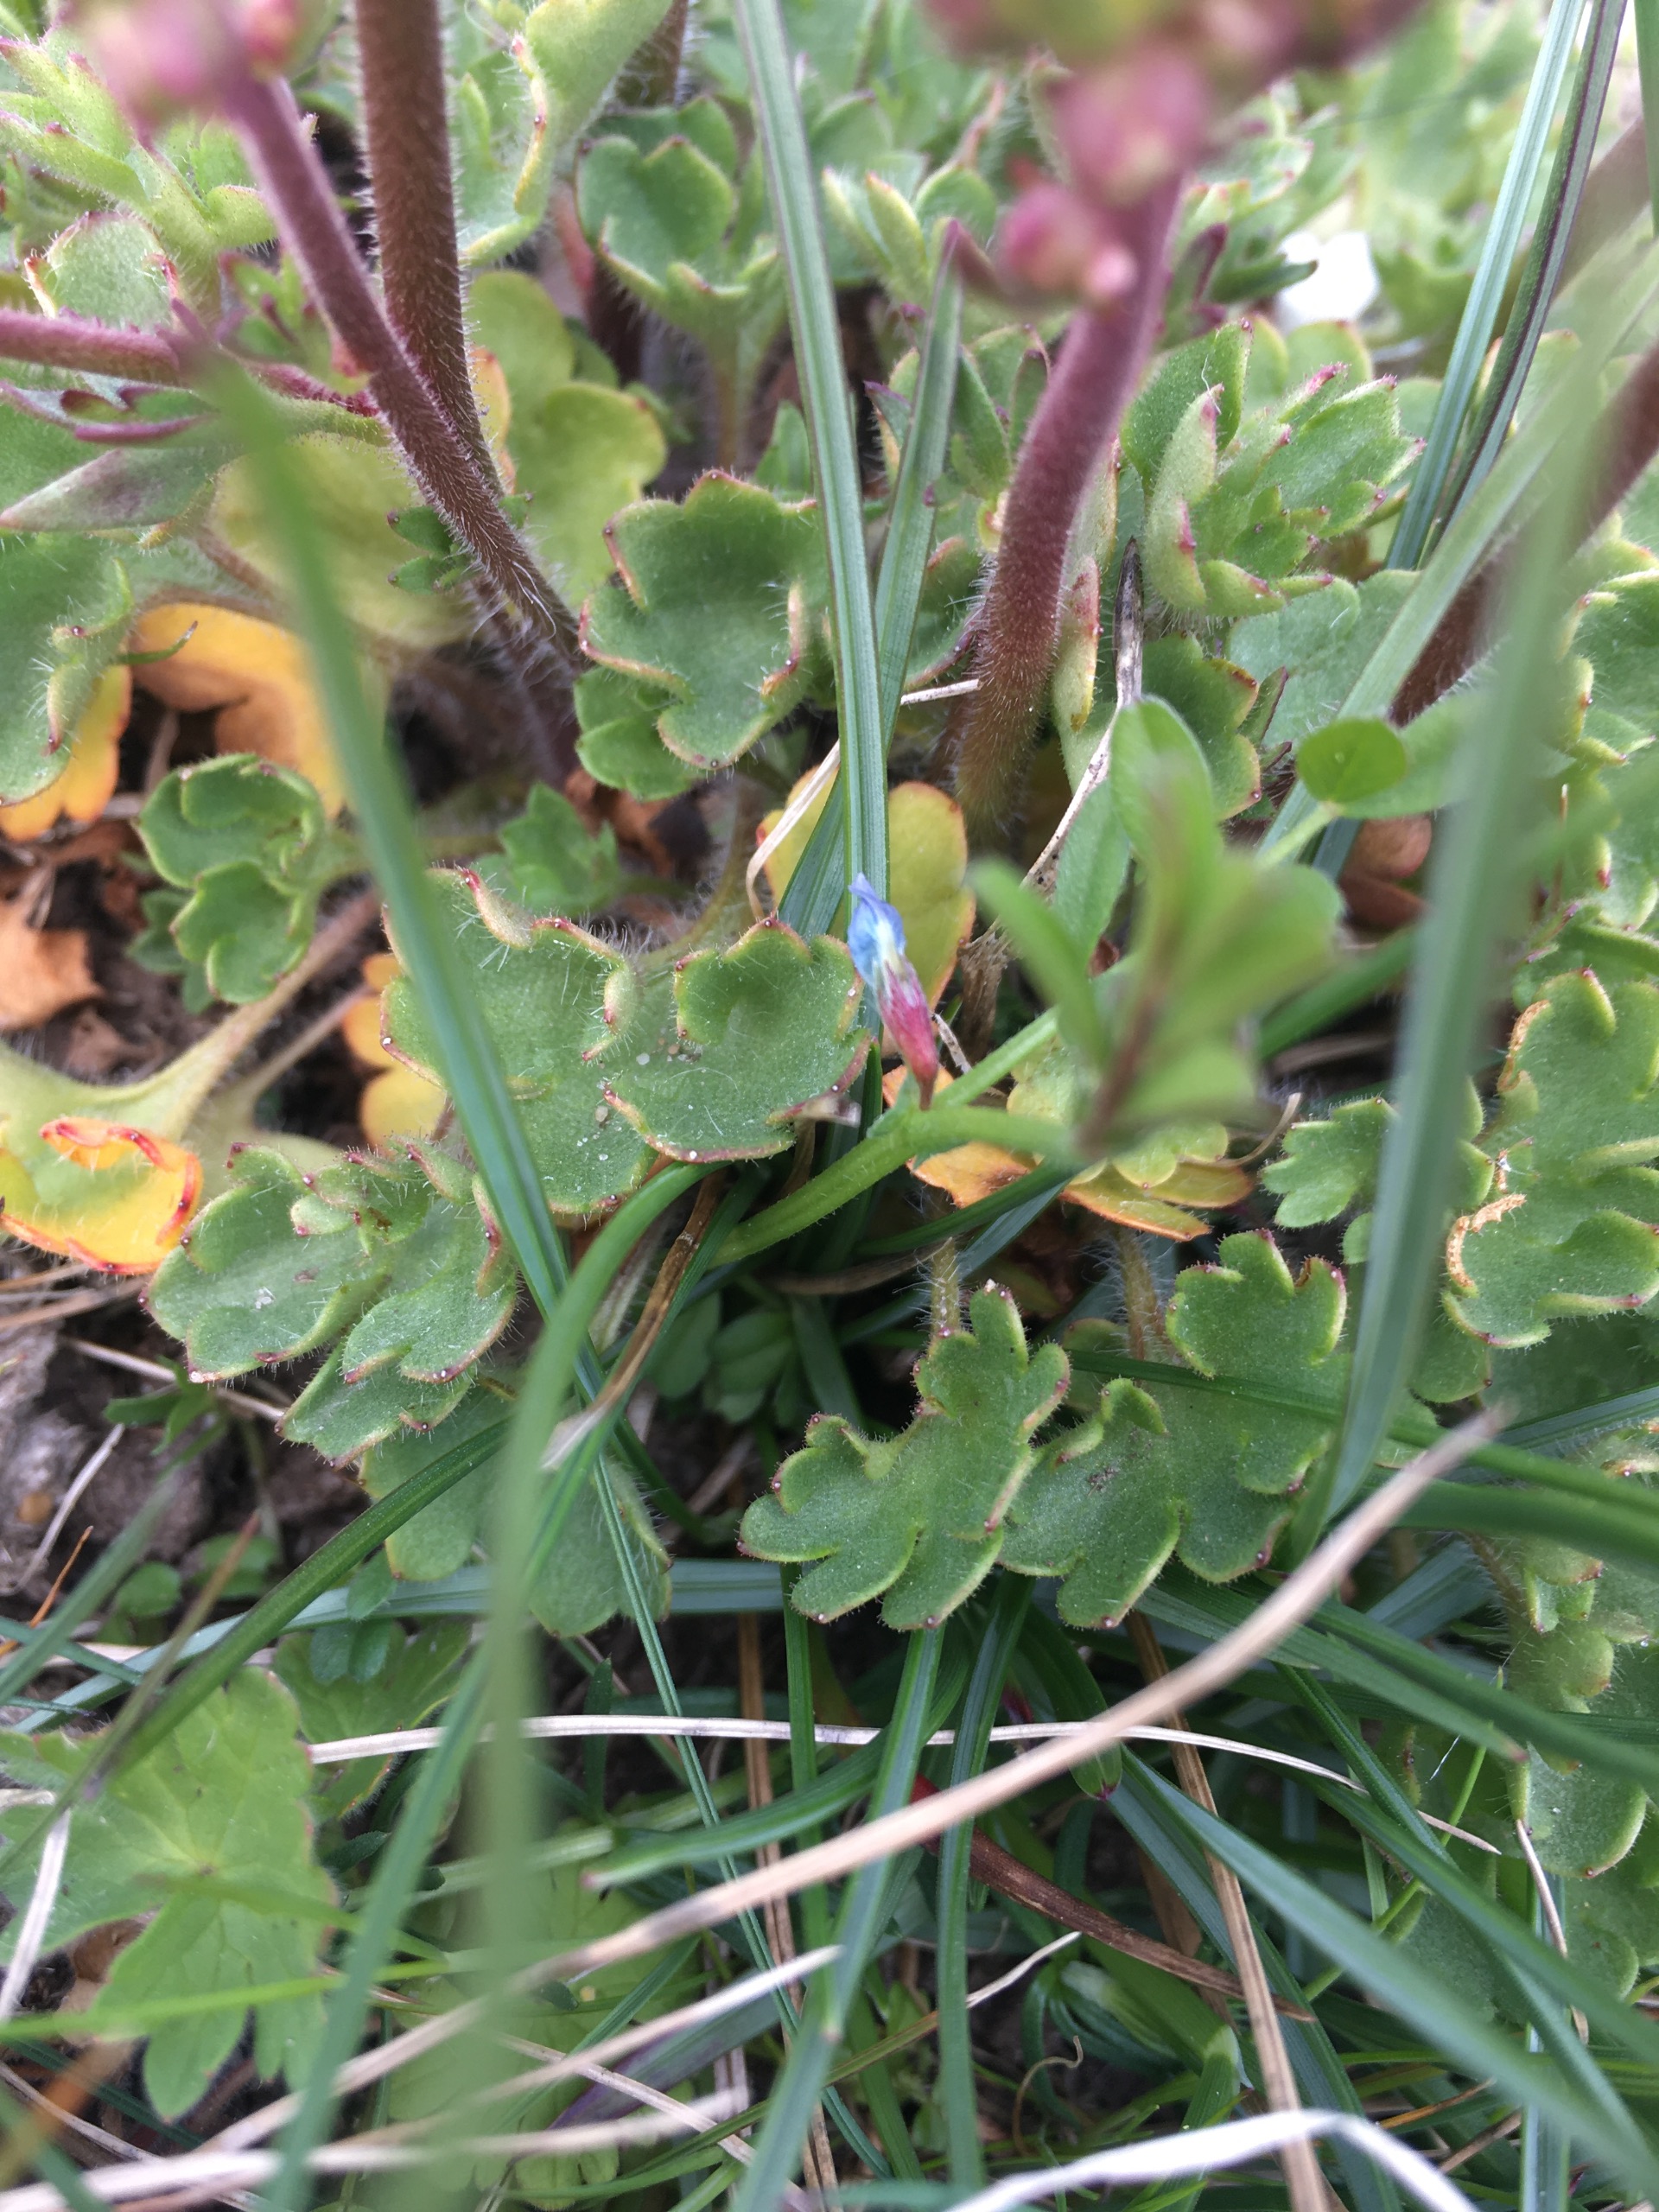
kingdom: Plantae
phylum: Tracheophyta
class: Magnoliopsida
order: Saxifragales
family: Saxifragaceae
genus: Saxifraga
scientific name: Saxifraga granulata
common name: Kornet stenbræk
